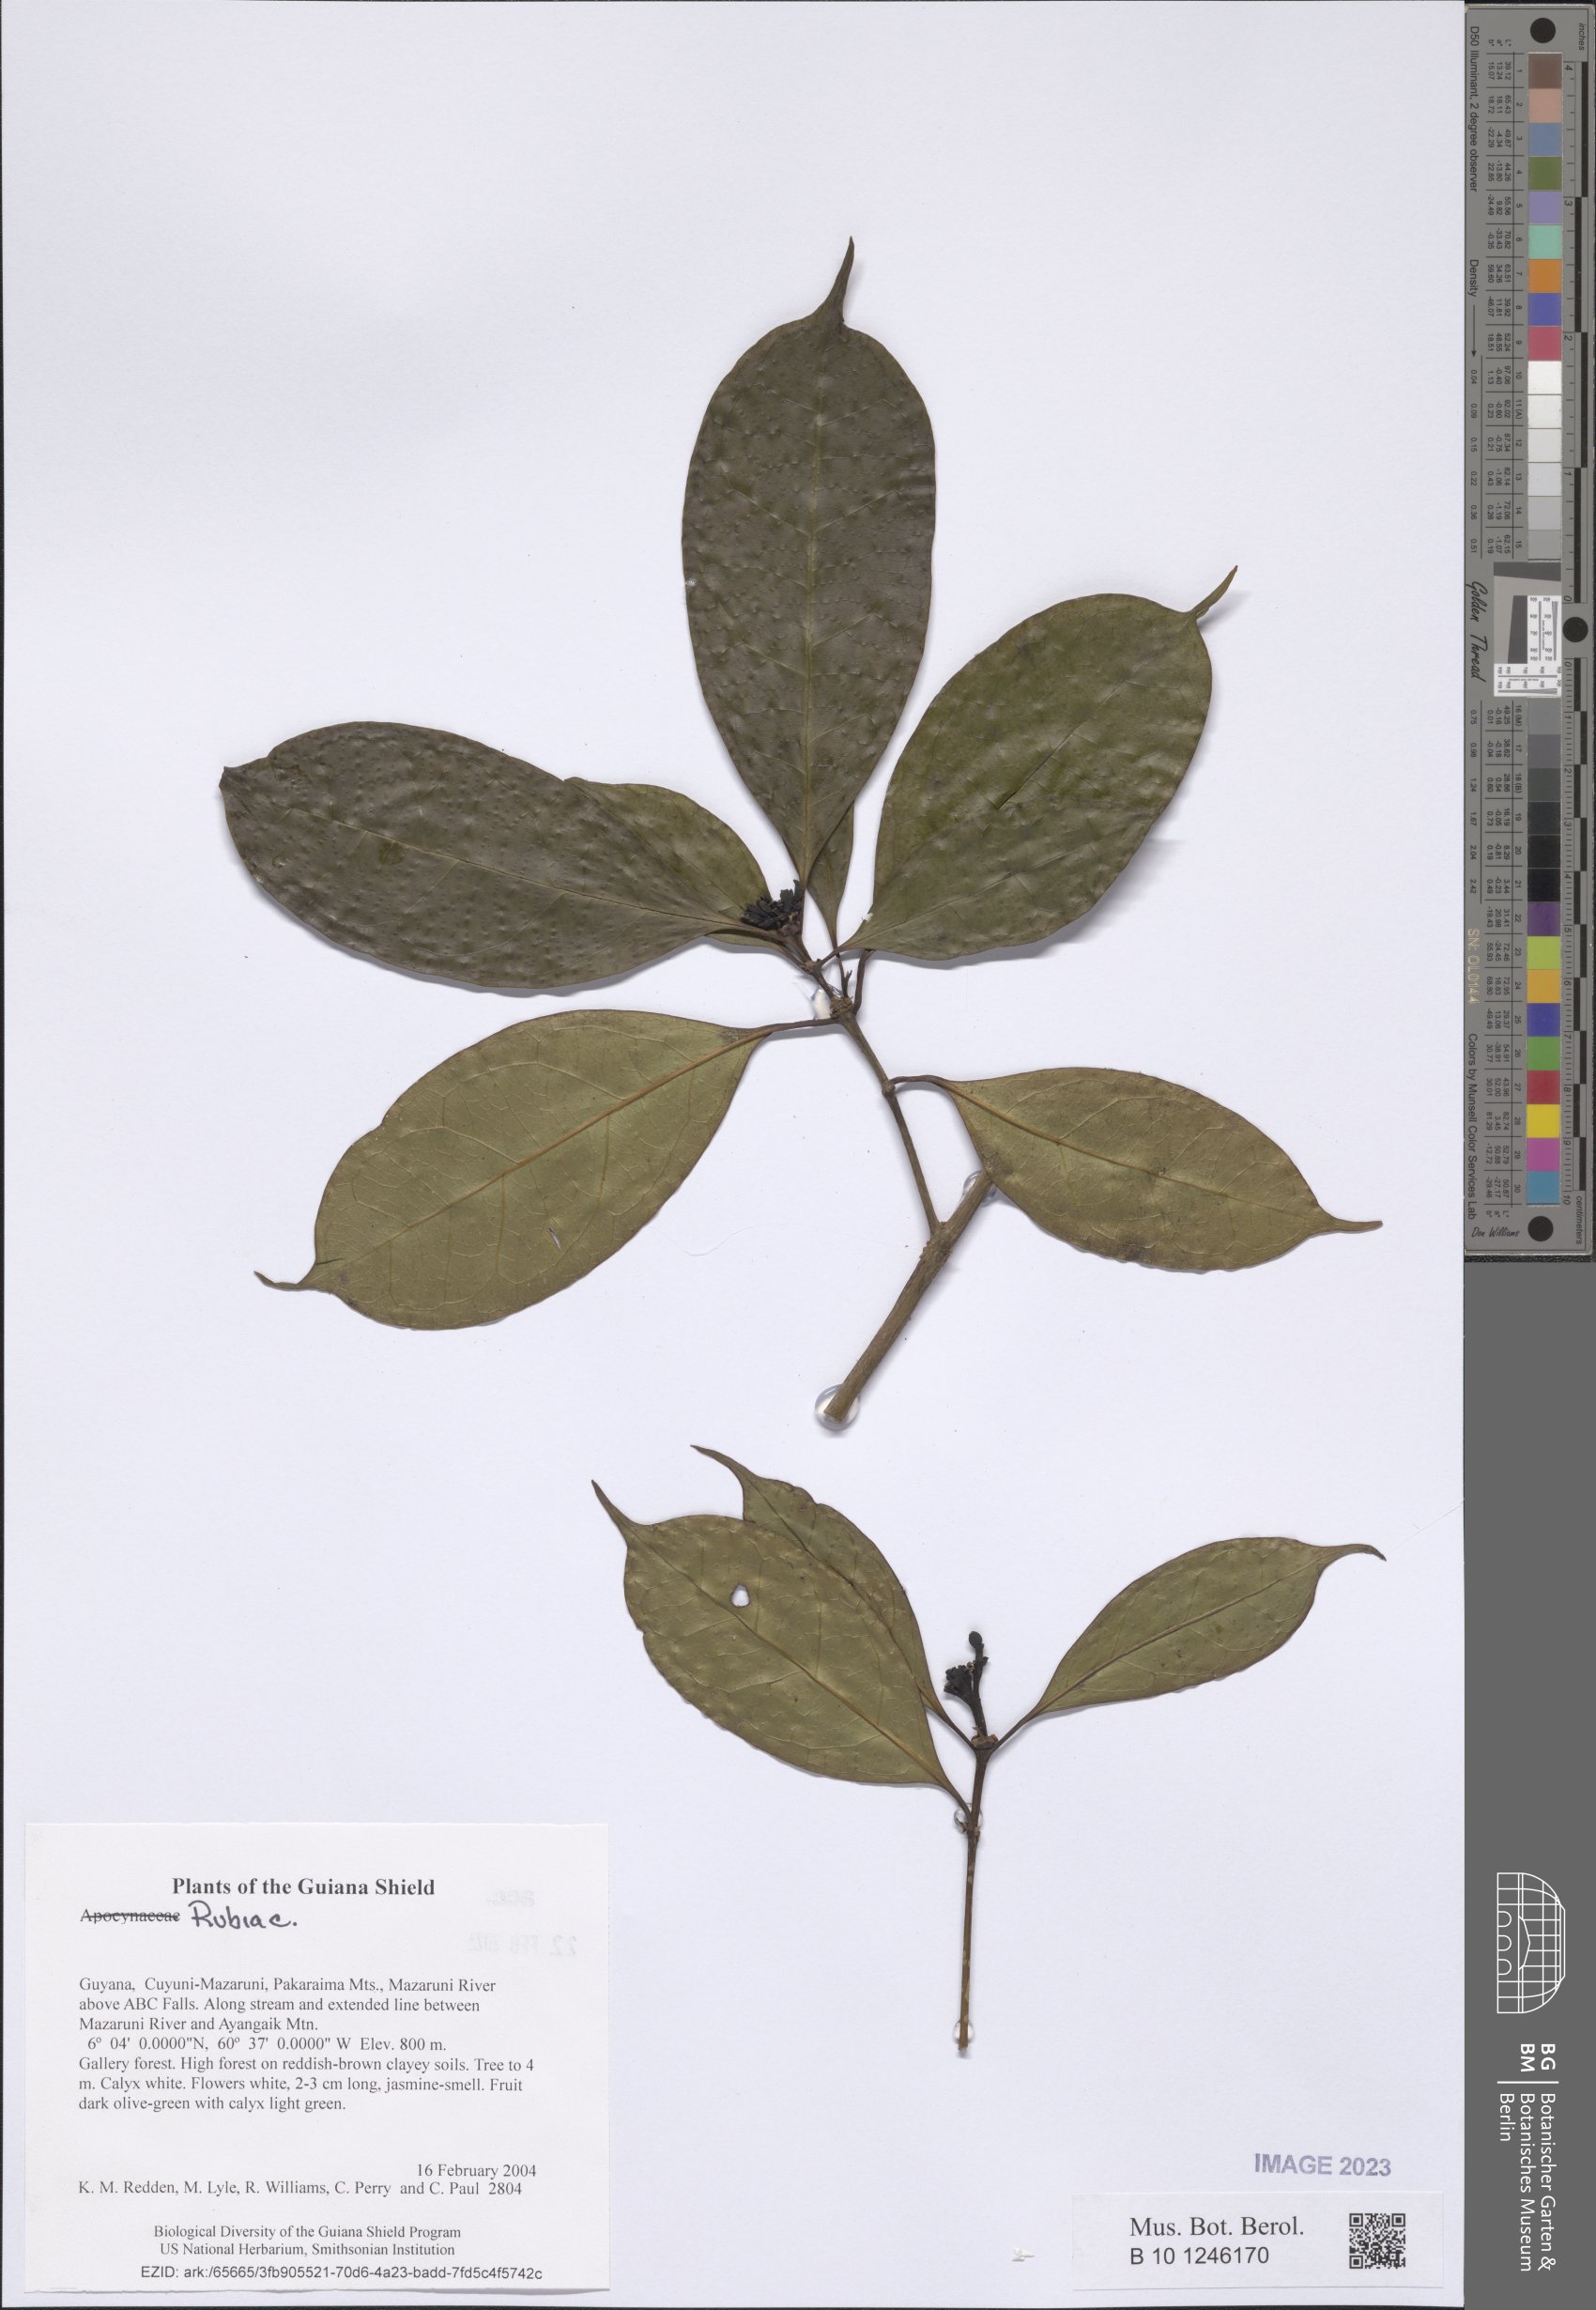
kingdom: Plantae
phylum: Tracheophyta
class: Magnoliopsida
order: Gentianales
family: Rubiaceae
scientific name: Rubiaceae
